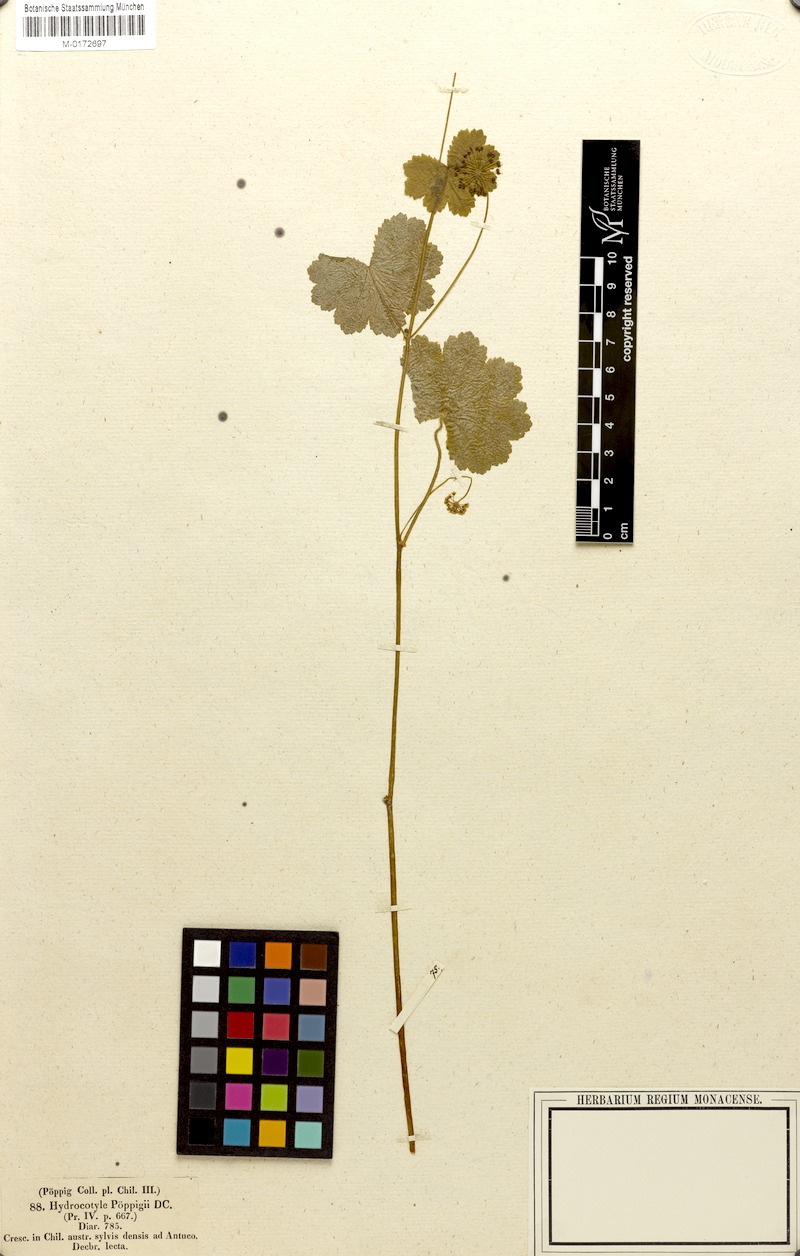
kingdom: Plantae
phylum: Tracheophyta
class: Magnoliopsida
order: Apiales
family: Araliaceae
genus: Hydrocotyle
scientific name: Hydrocotyle poeppigii
